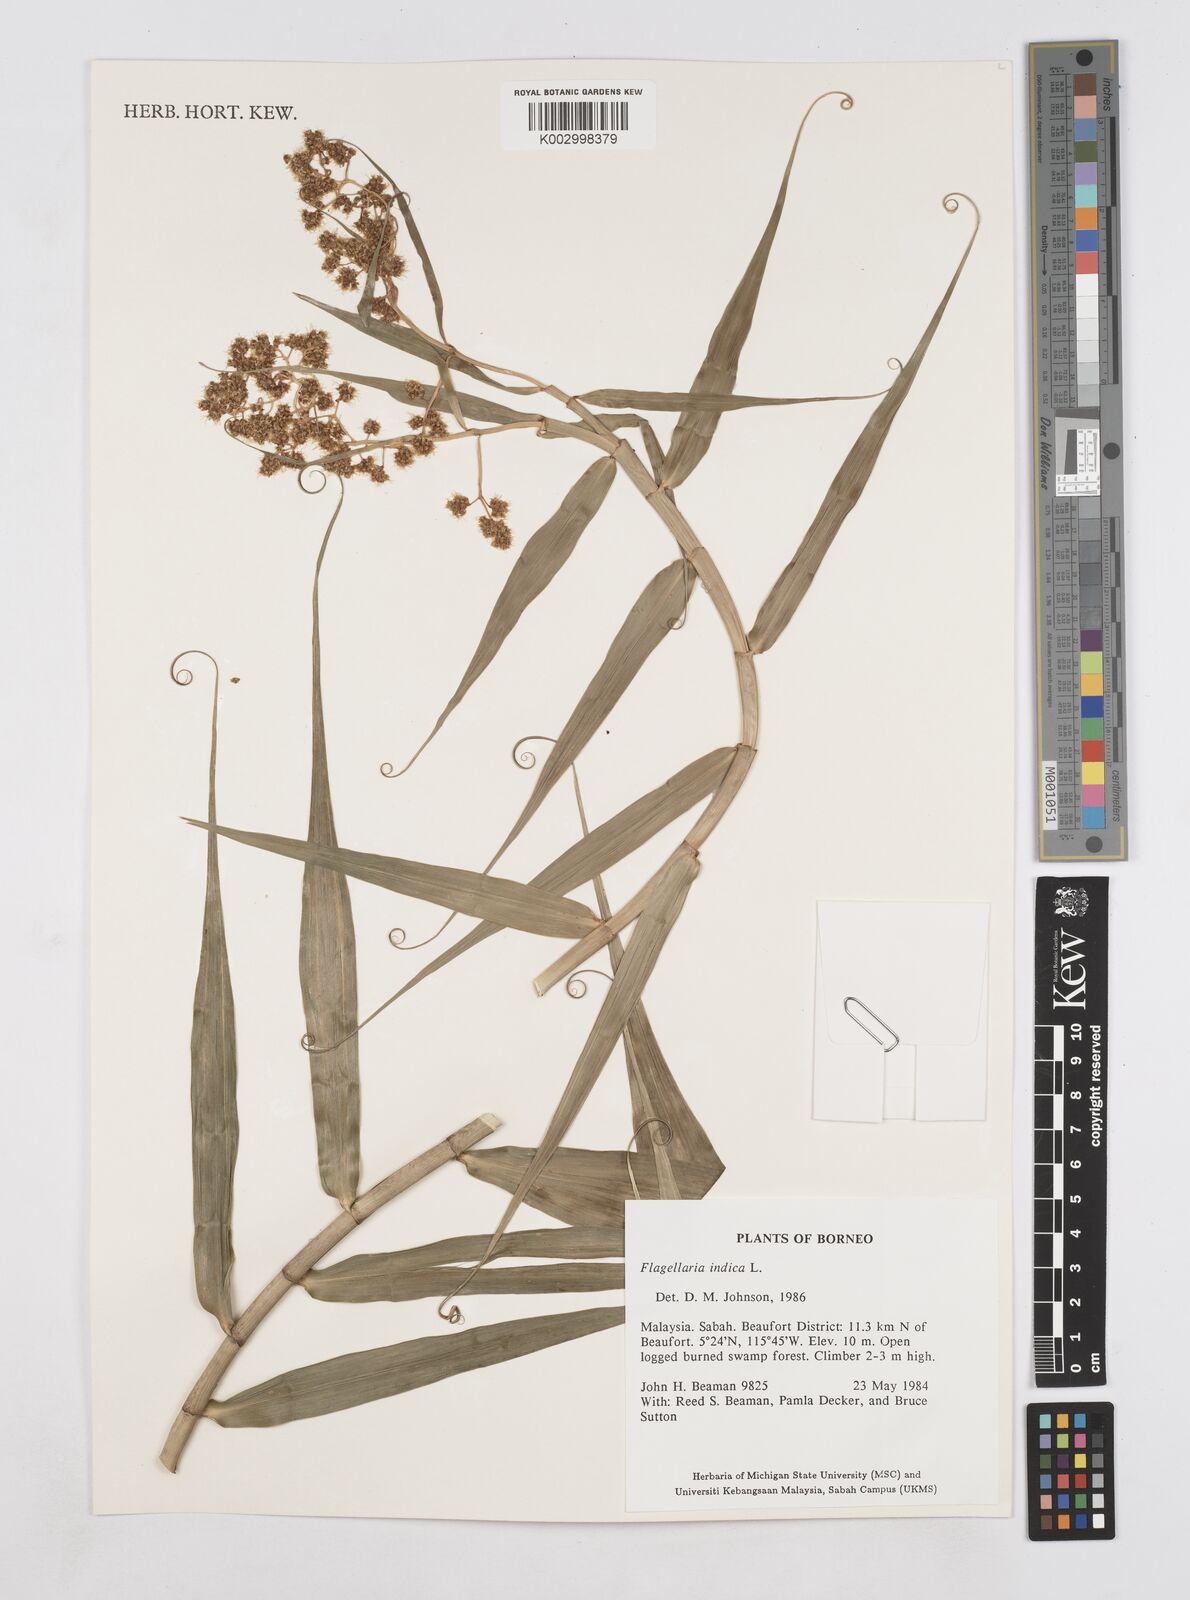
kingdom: Plantae
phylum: Tracheophyta
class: Liliopsida
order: Poales
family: Flagellariaceae
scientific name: Flagellariaceae
